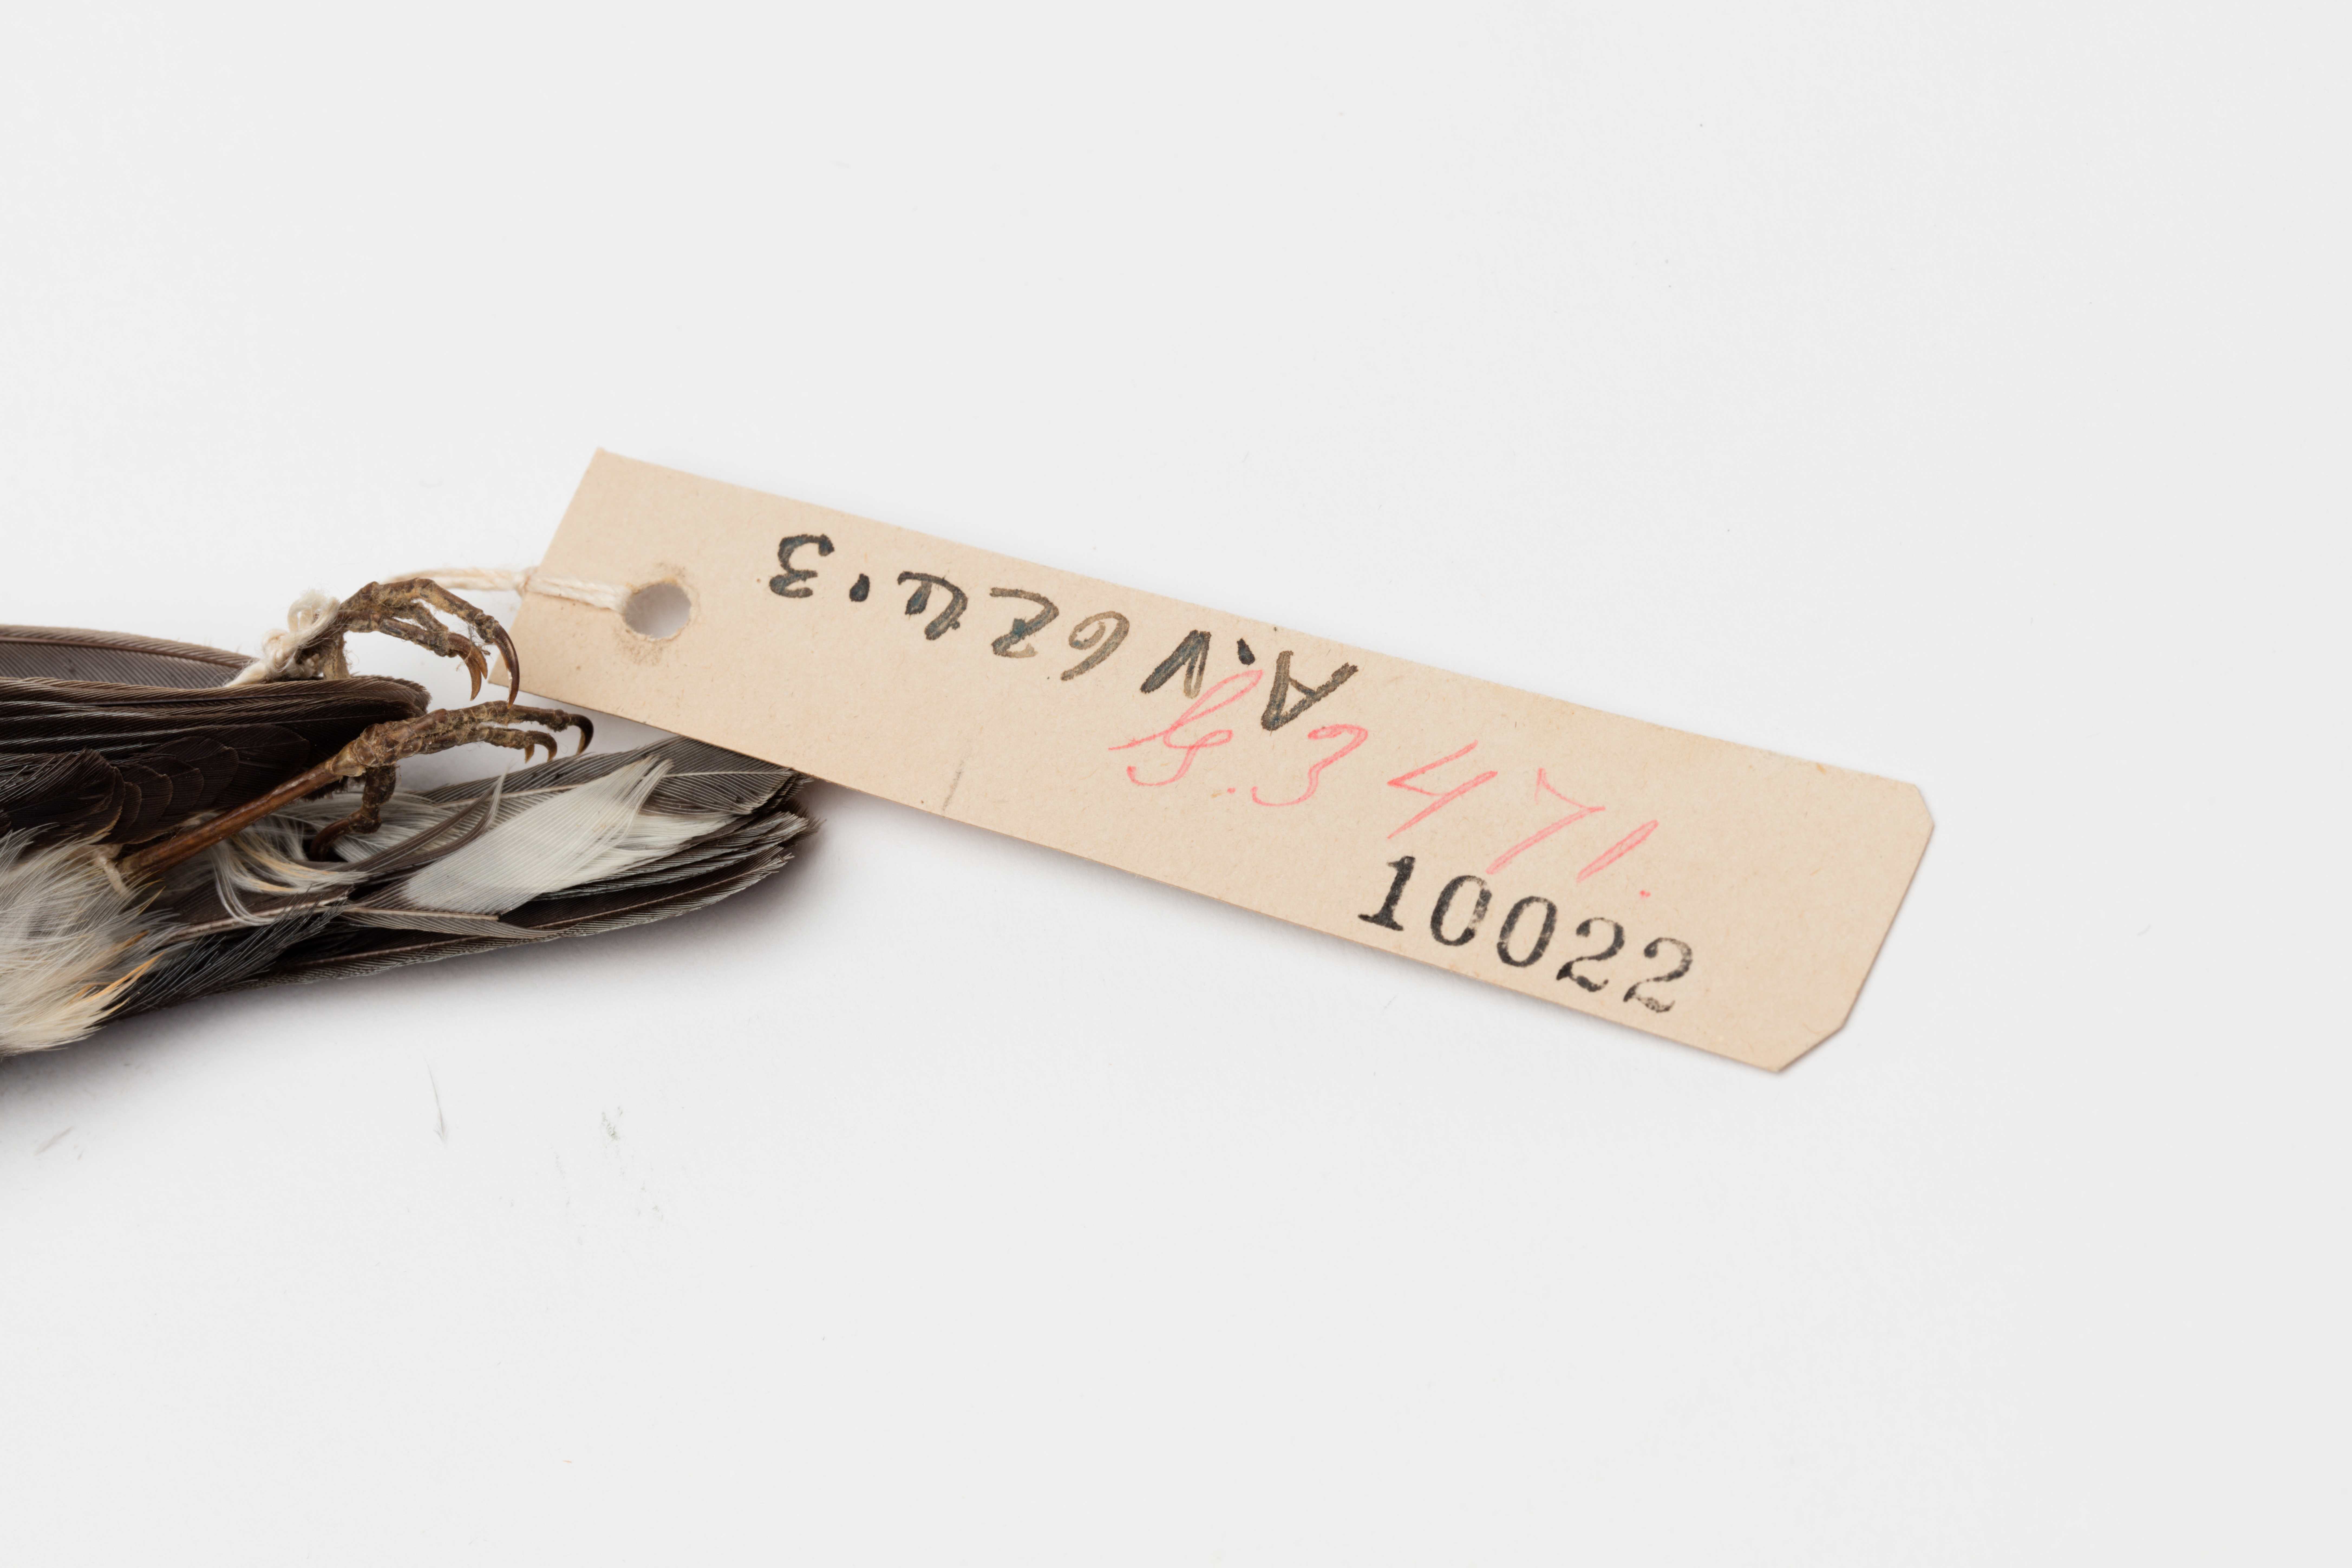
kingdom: Animalia
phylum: Chordata
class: Aves
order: Passeriformes
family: Parulidae
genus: Setophaga
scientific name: Setophaga caerulescens
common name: Black-throated blue warbler
